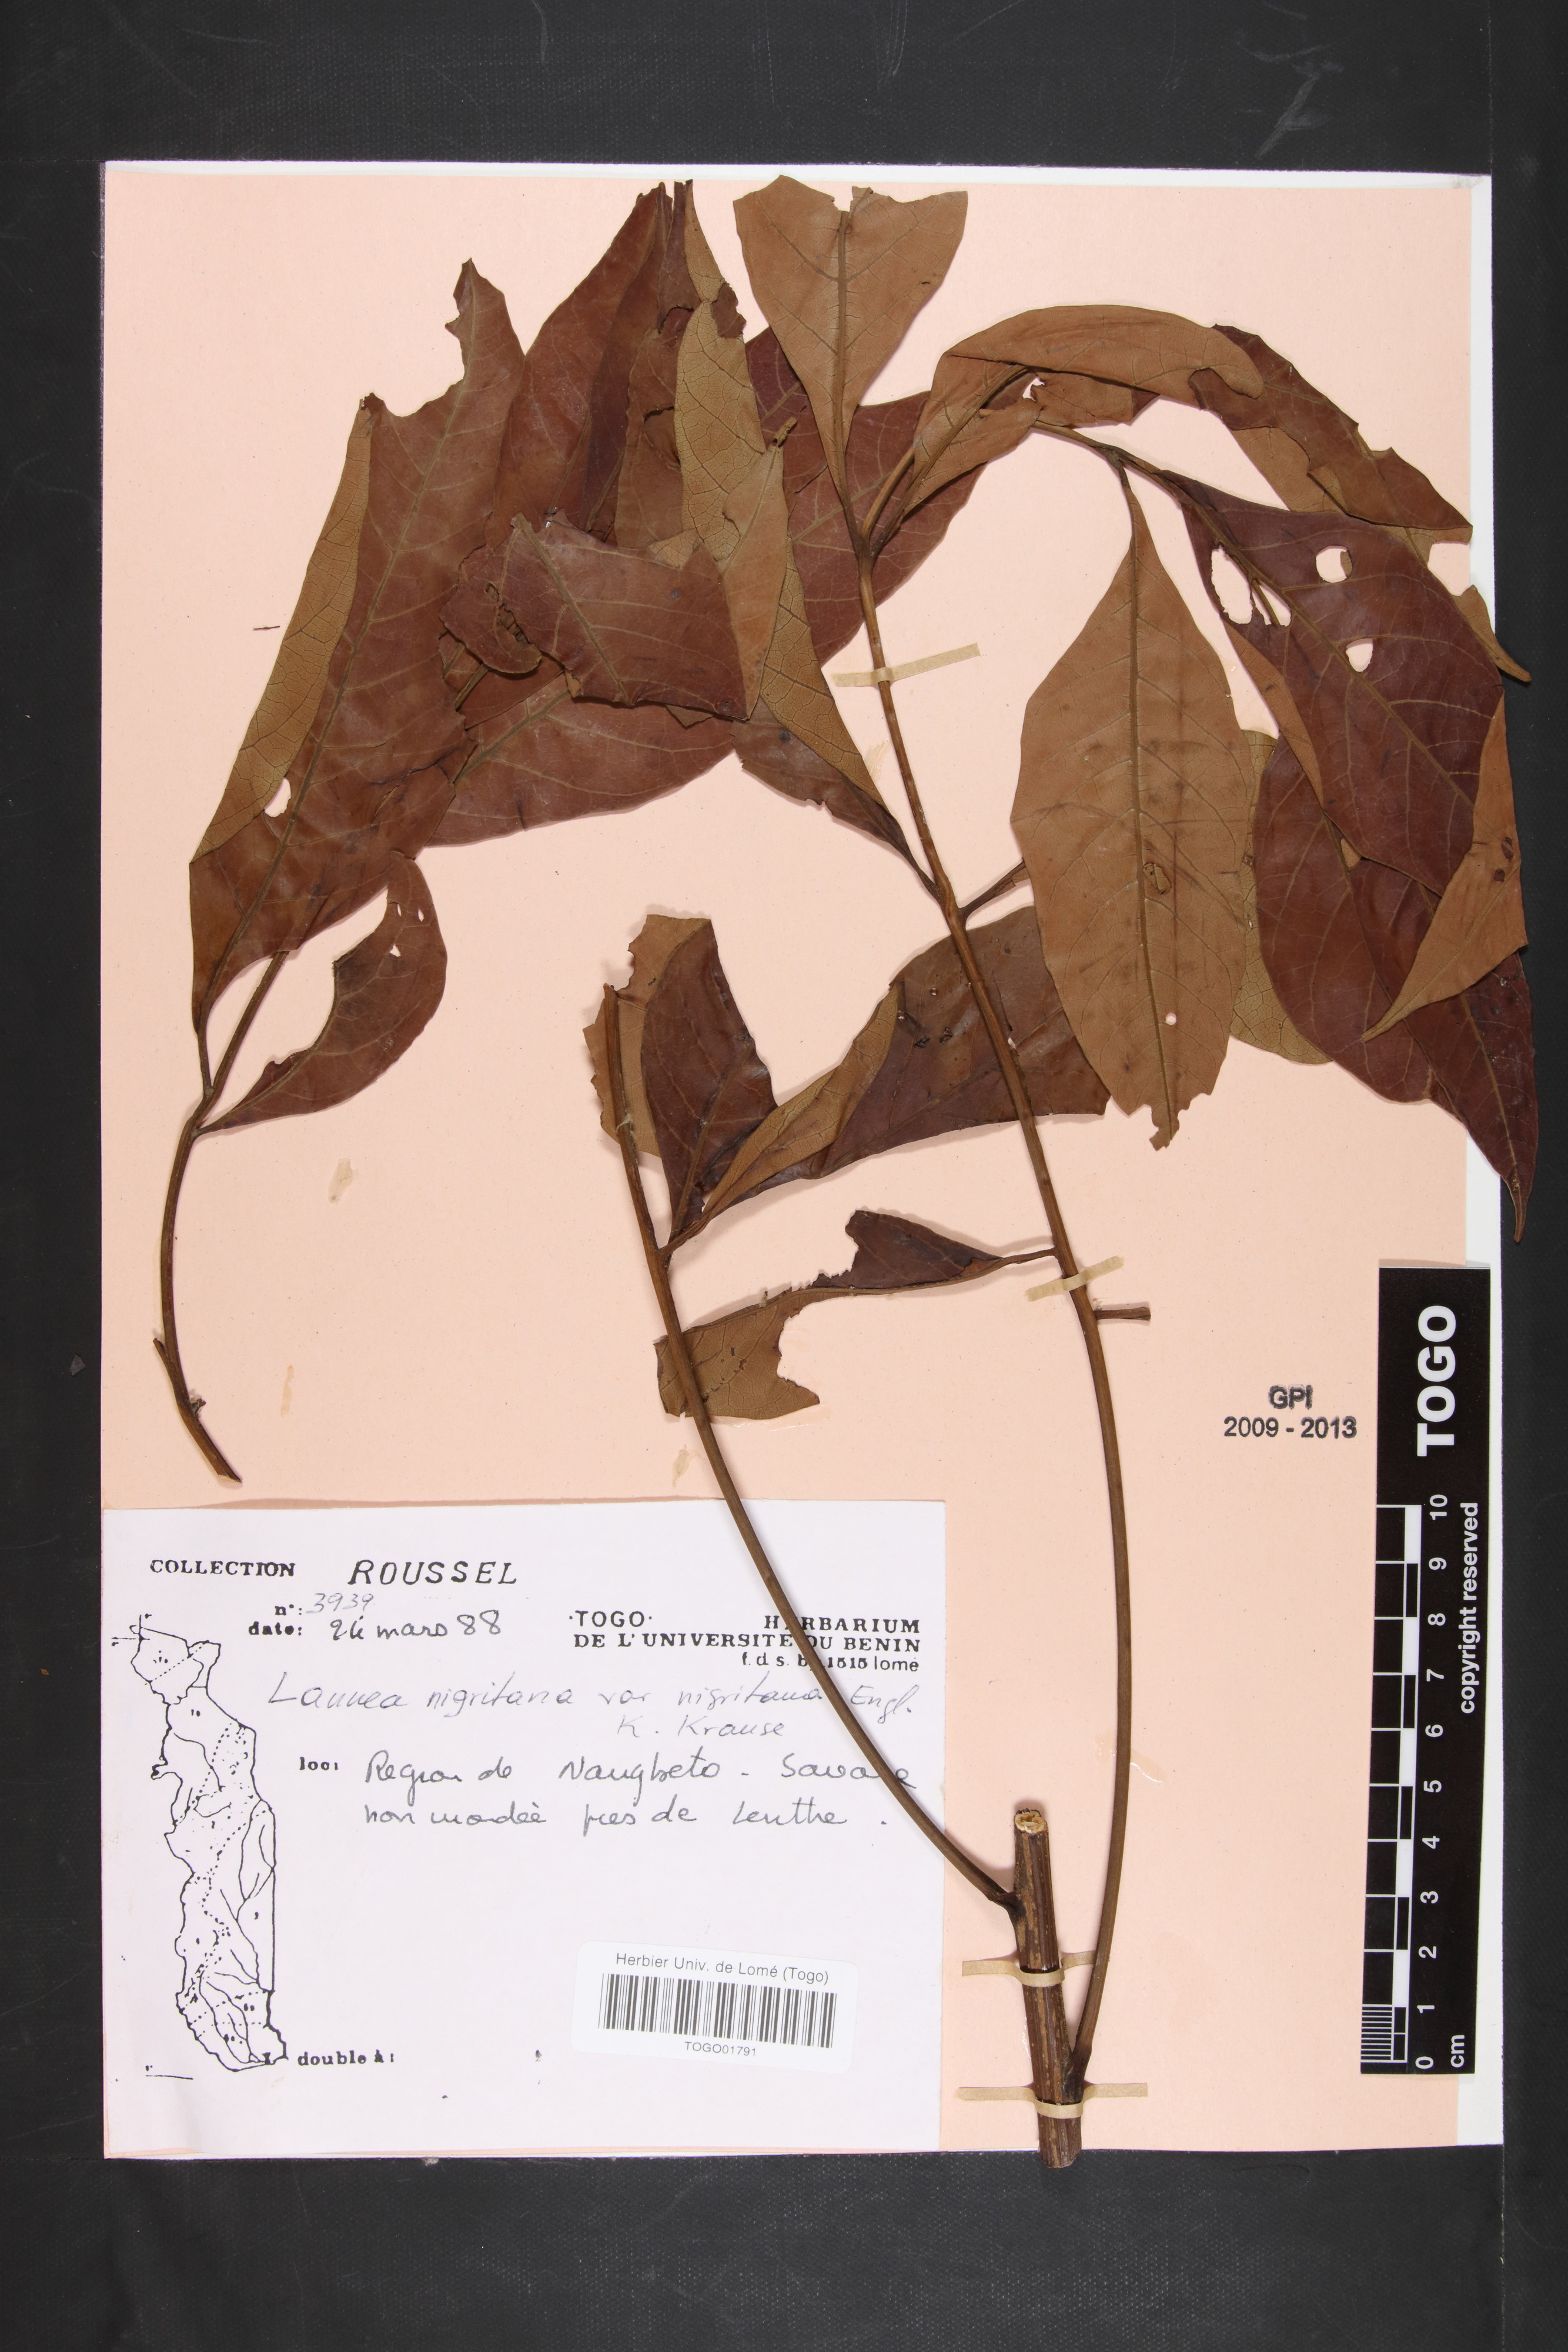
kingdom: Plantae
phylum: Tracheophyta
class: Magnoliopsida
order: Sapindales
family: Anacardiaceae
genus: Lannea
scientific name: Lannea nigritana
